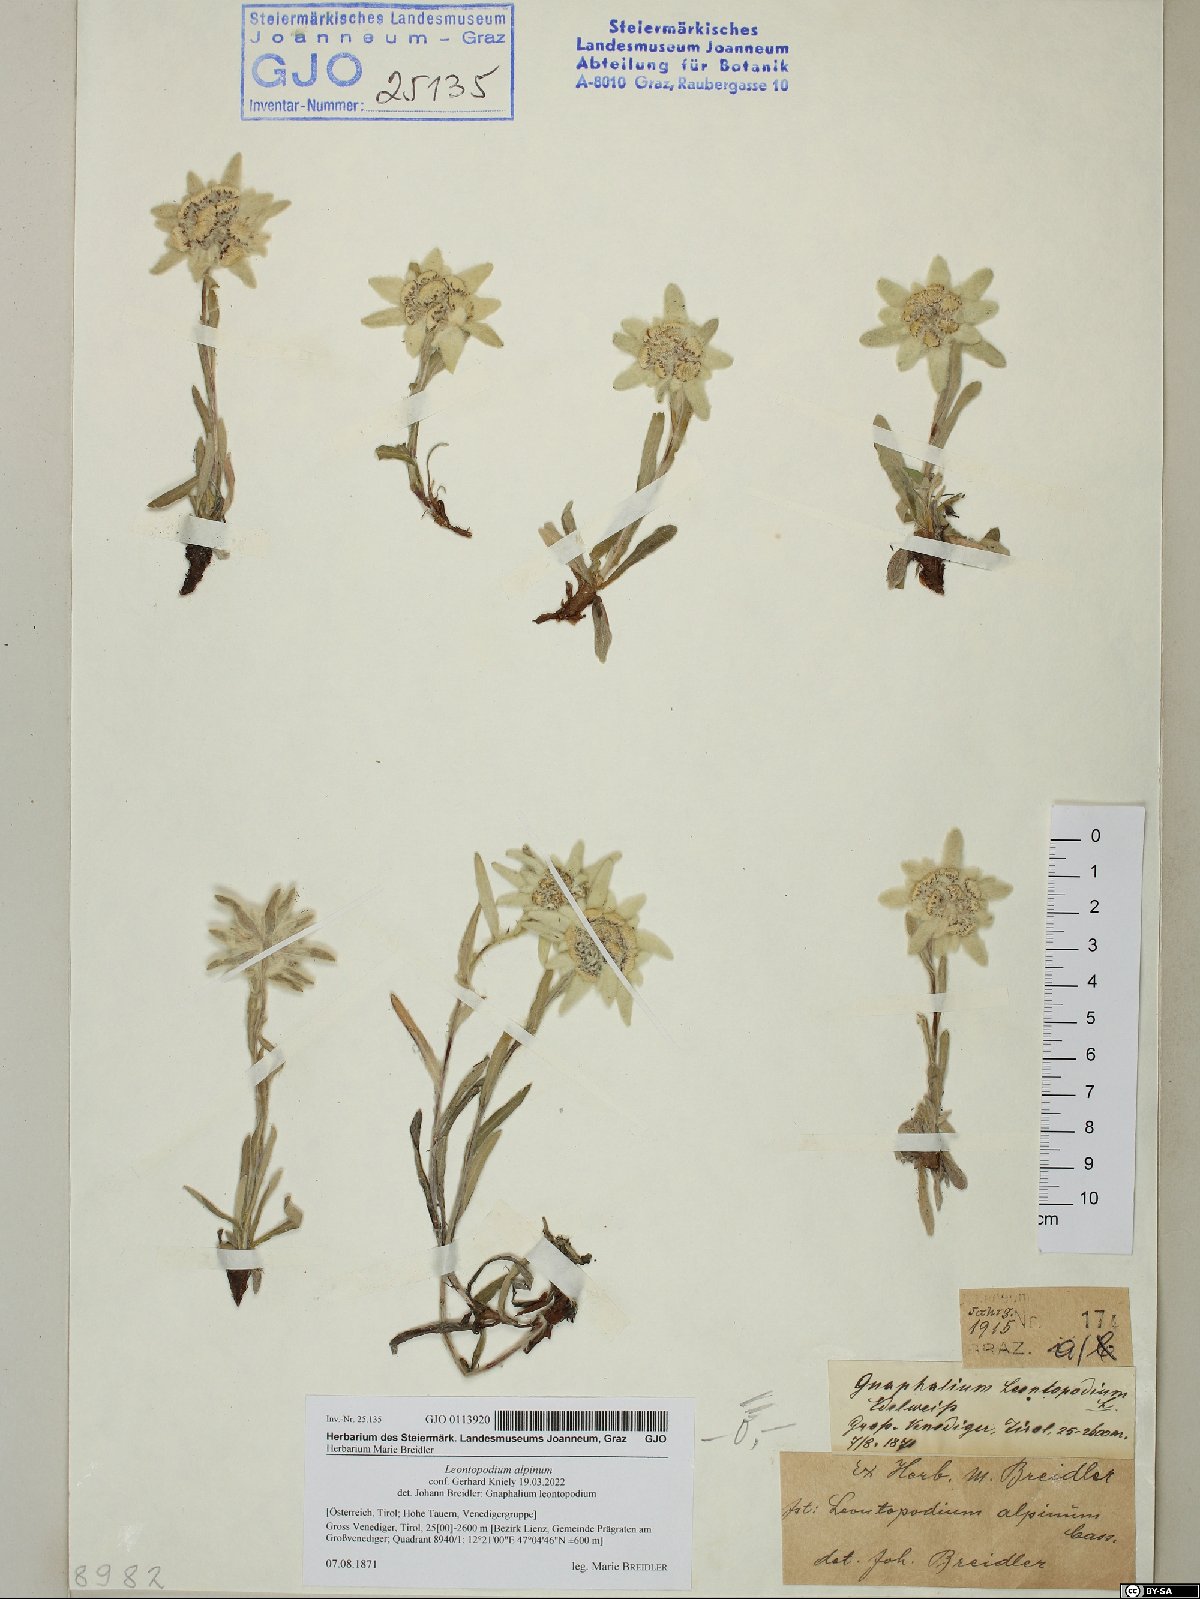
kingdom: Plantae
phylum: Tracheophyta
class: Magnoliopsida
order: Asterales
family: Asteraceae
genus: Leontopodium
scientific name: Leontopodium nivale
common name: Edelweiss
